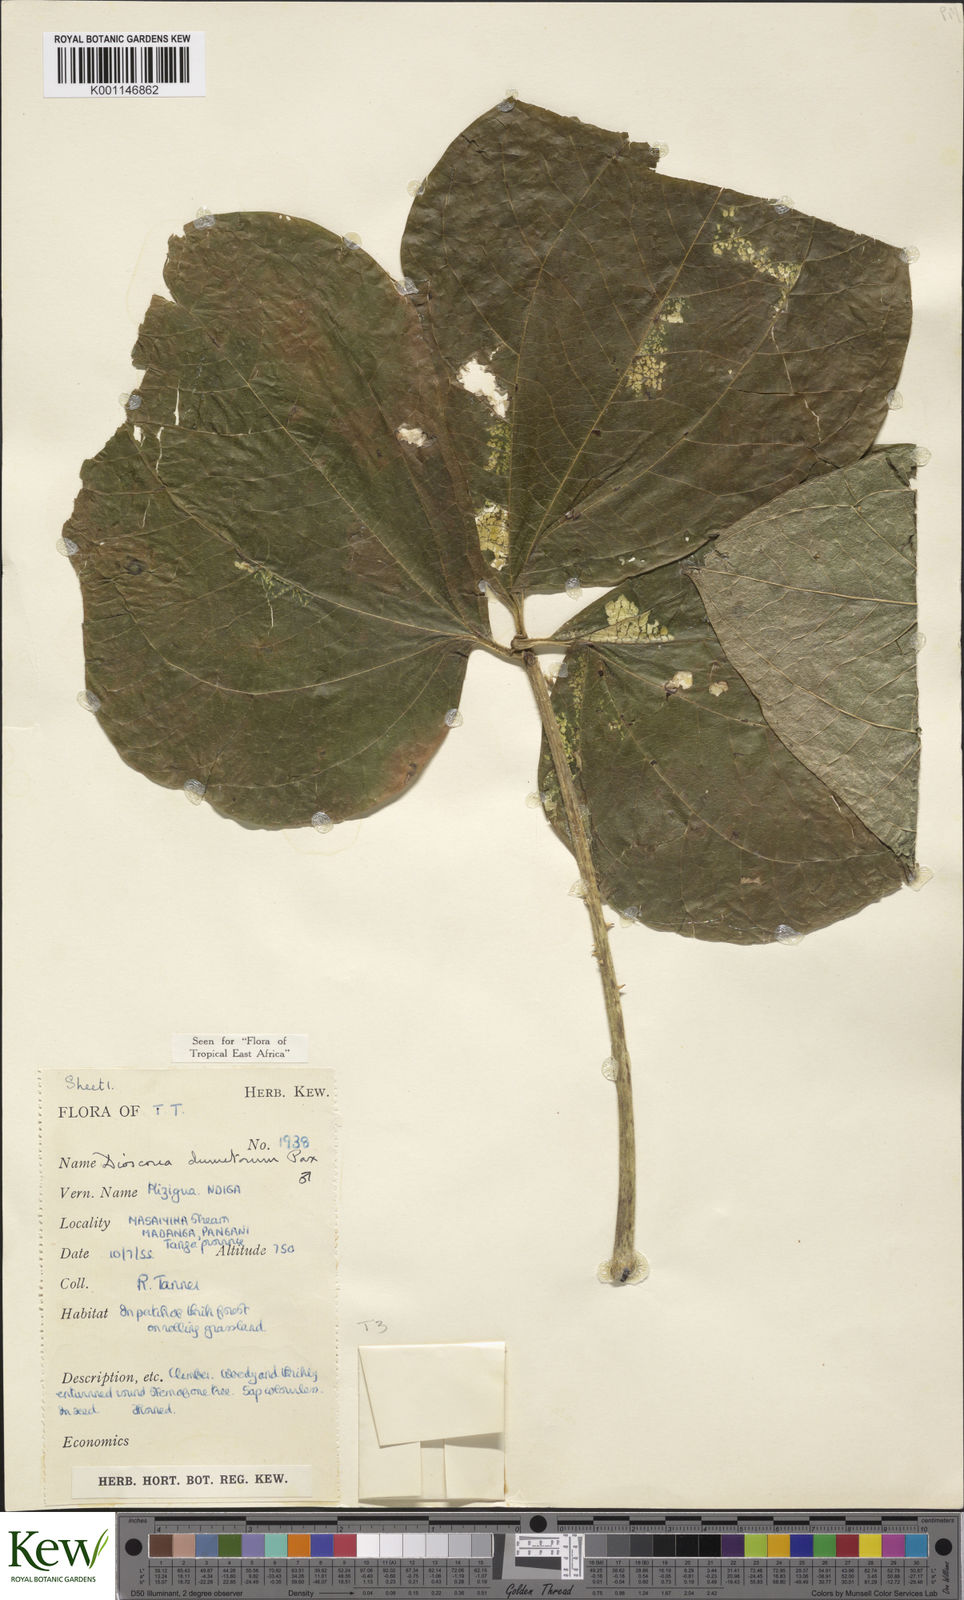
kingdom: Plantae
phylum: Tracheophyta
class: Liliopsida
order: Dioscoreales
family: Dioscoreaceae
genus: Dioscorea
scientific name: Dioscorea dumetorum
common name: African bitter yam
